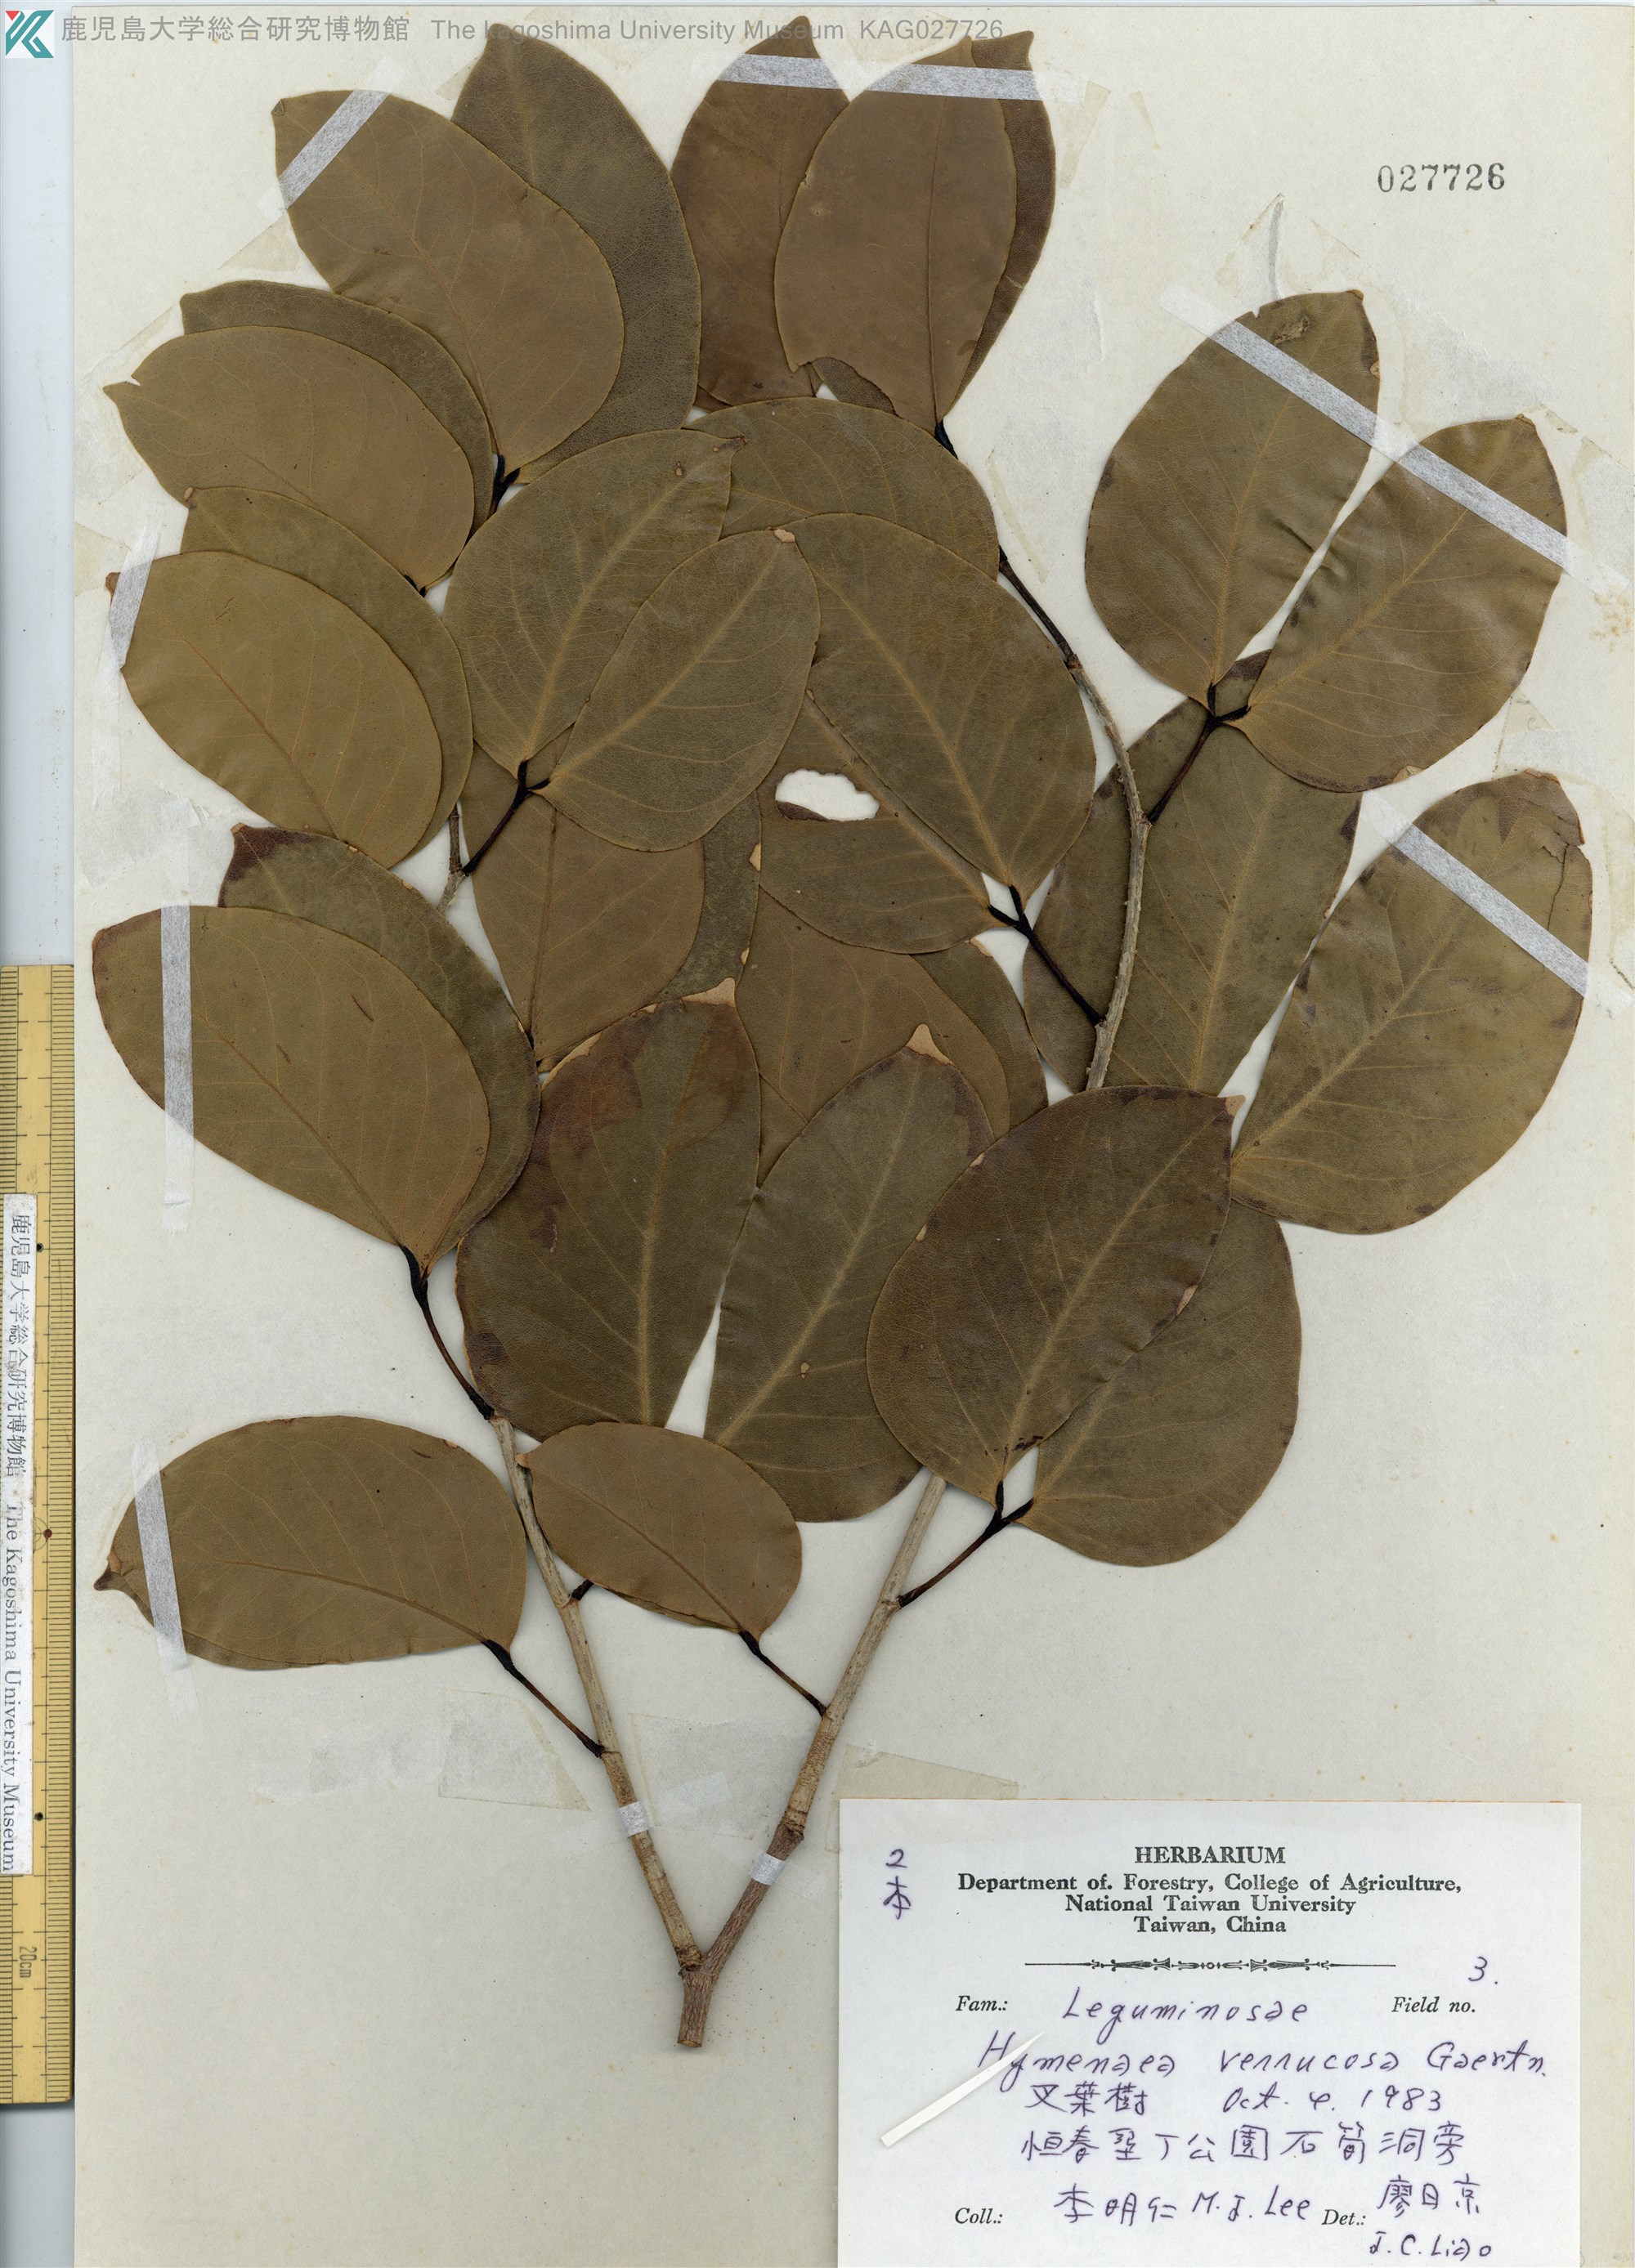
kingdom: Plantae
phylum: Tracheophyta
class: Magnoliopsida
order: Fabales
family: Fabaceae
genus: Hymenaea
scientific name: Hymenaea verrucosa
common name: East african copal
